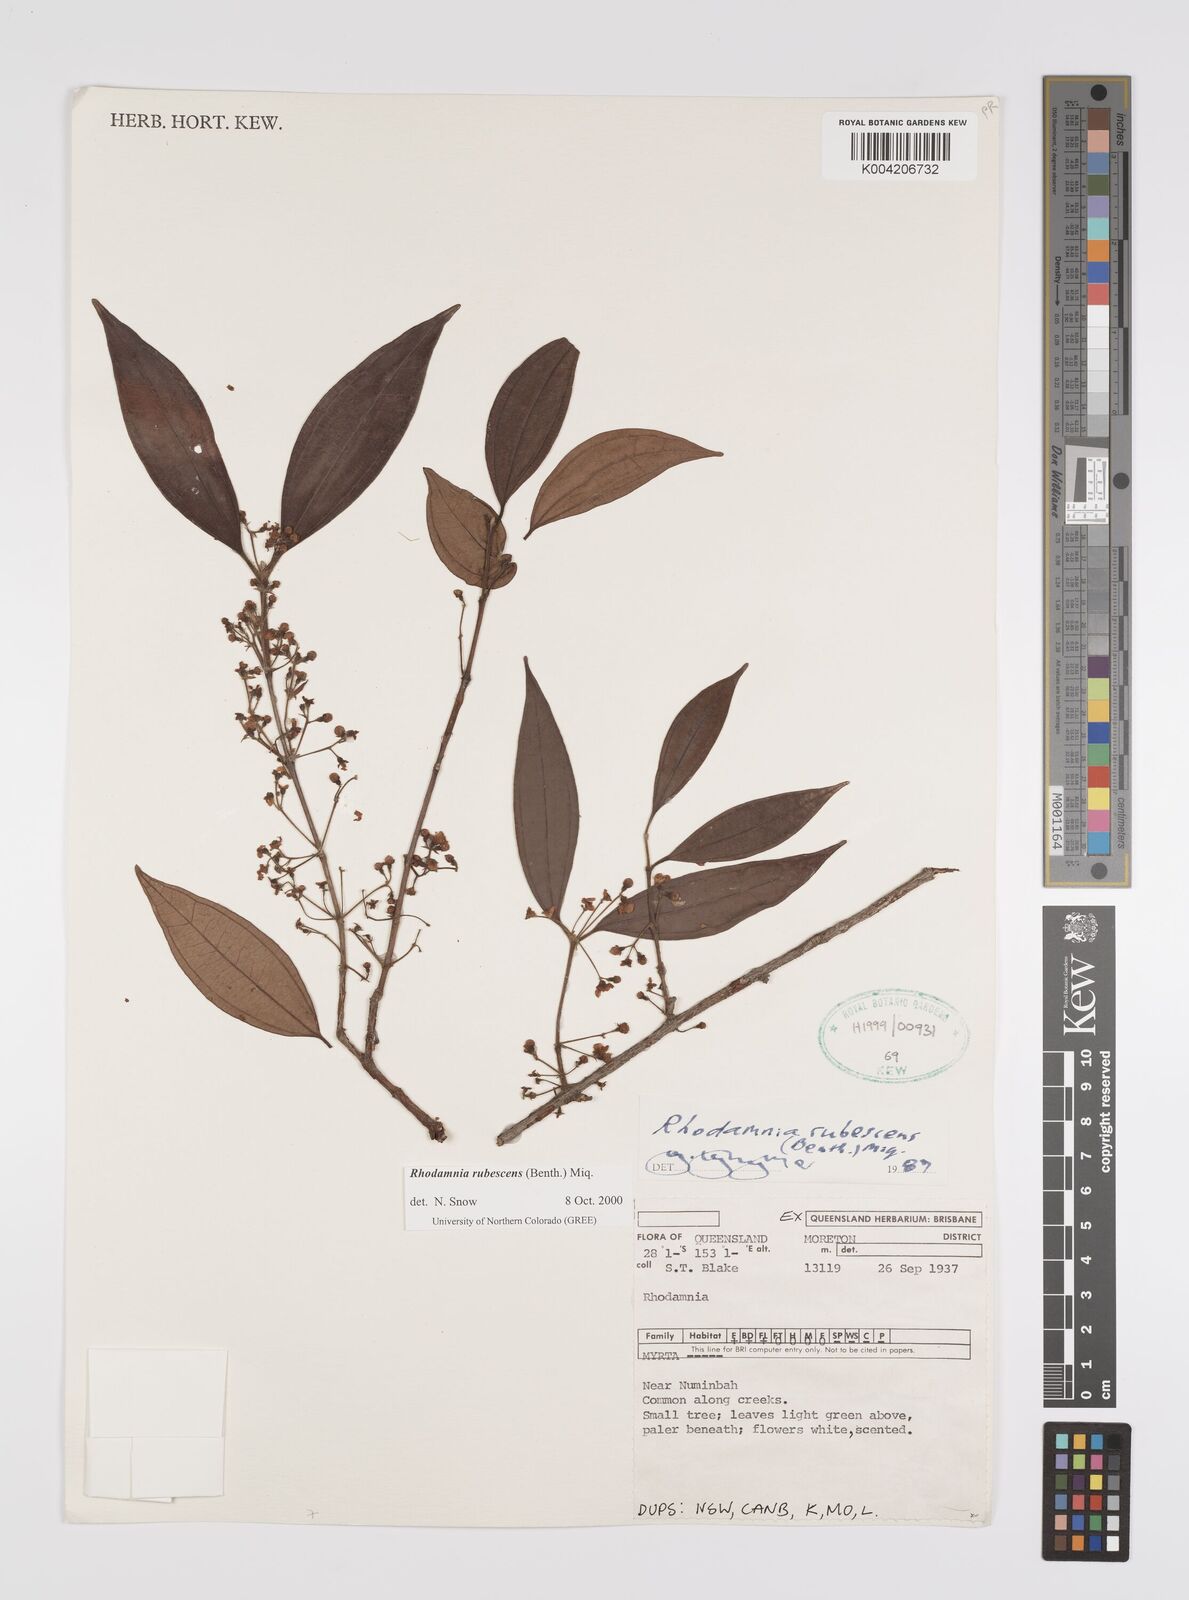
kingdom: Plantae
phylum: Tracheophyta
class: Magnoliopsida
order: Myrtales
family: Myrtaceae
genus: Rhodamnia
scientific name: Rhodamnia rubescens
